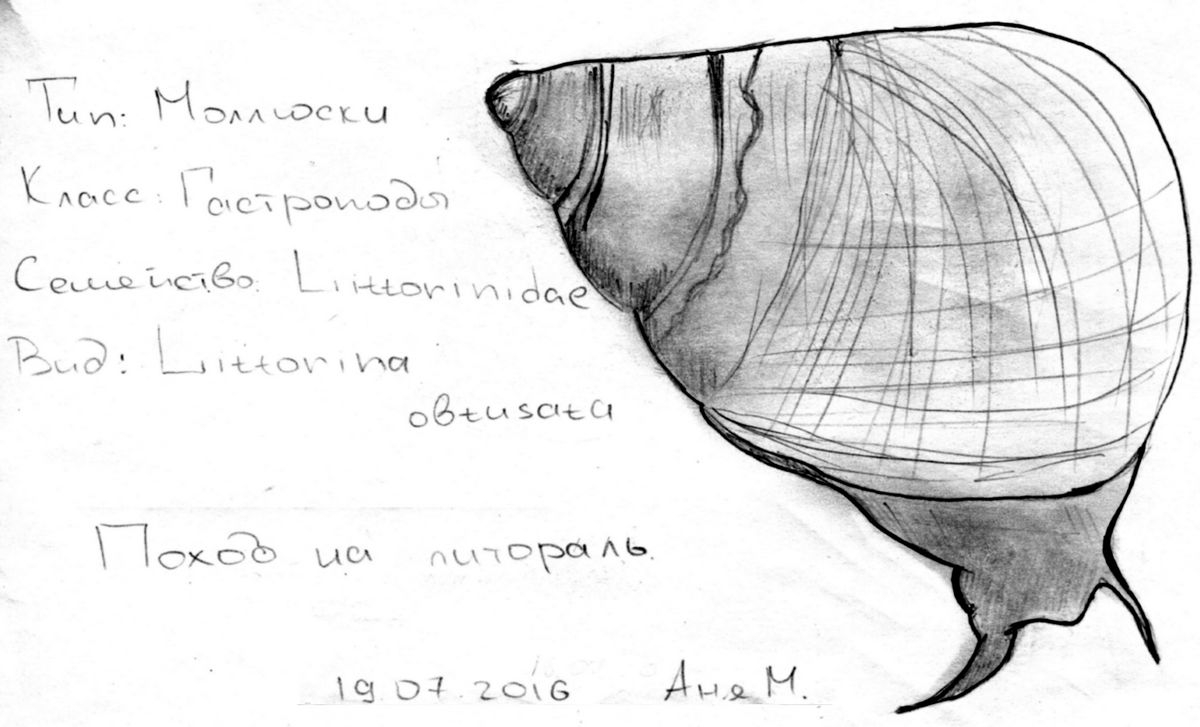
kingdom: Animalia
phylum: Mollusca
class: Gastropoda
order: Littorinimorpha
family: Littorinidae
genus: Littorina
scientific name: Littorina saxatilis
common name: Black-lined periwinkle
